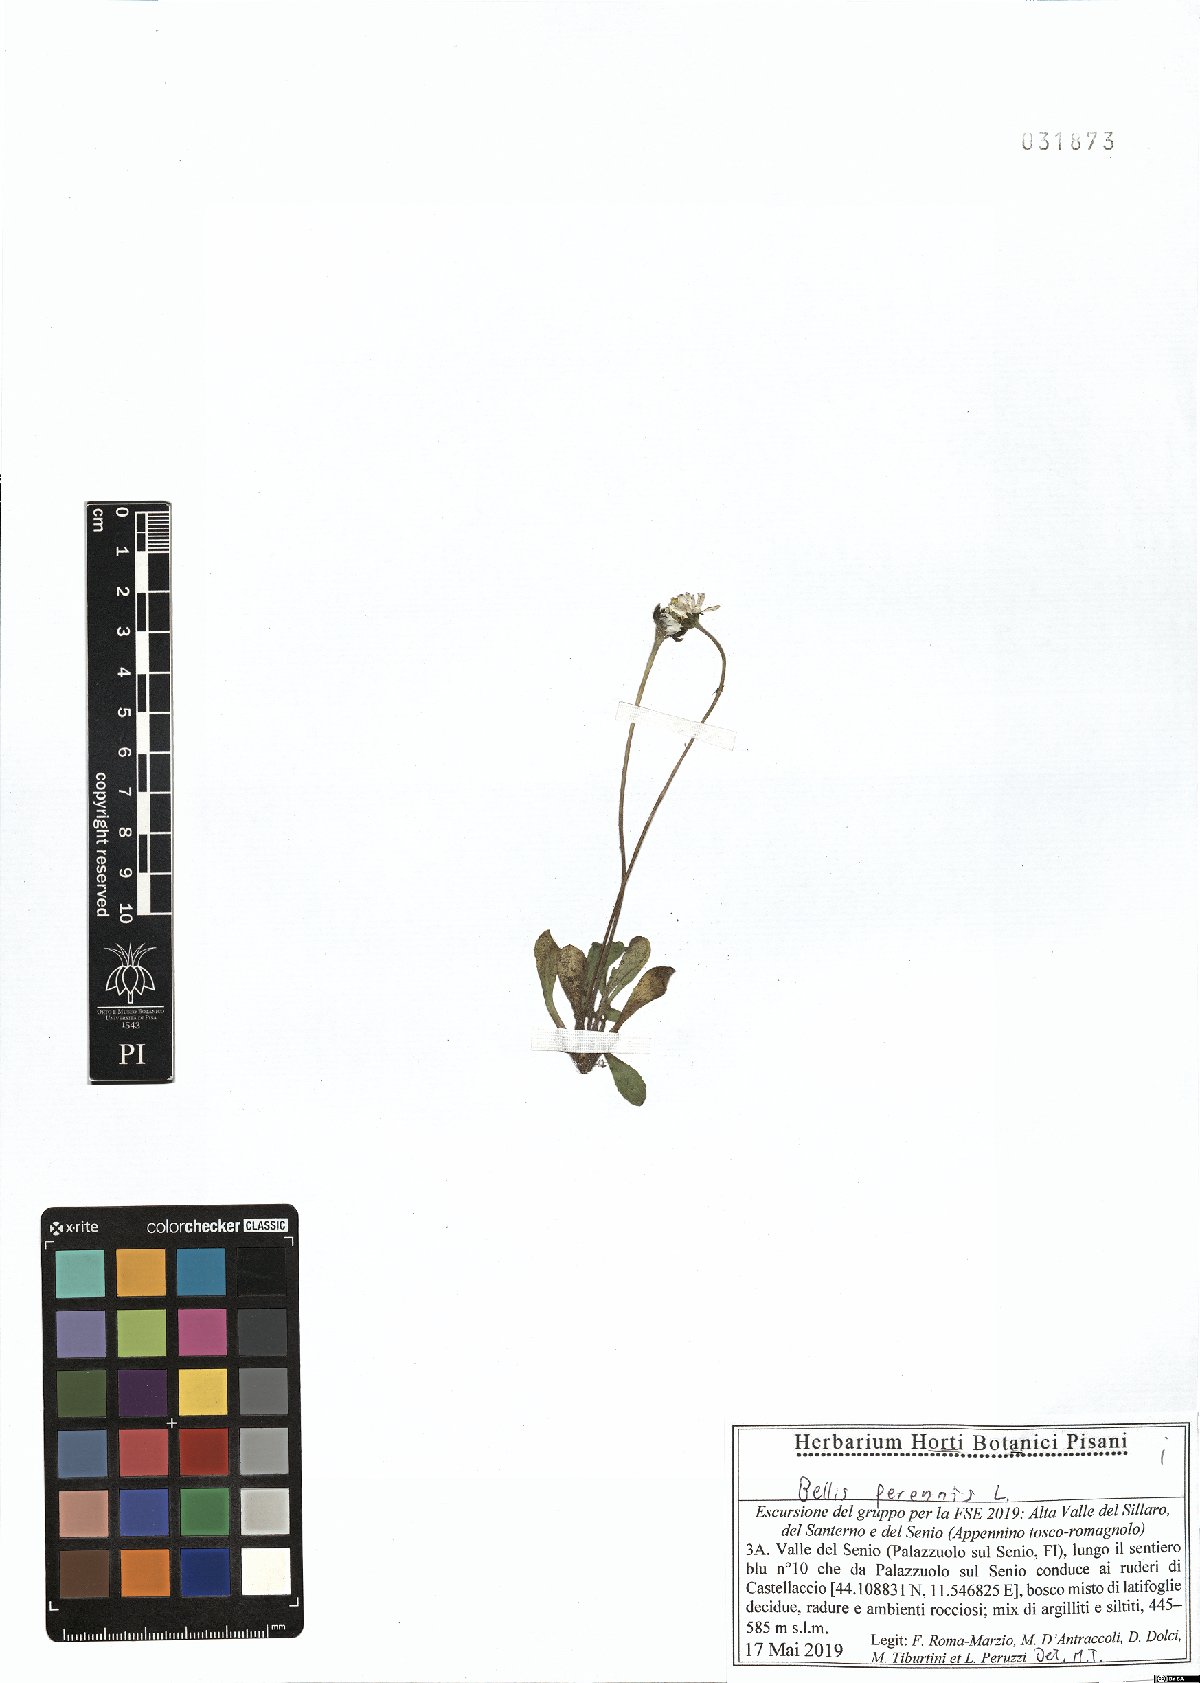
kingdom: Plantae
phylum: Tracheophyta
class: Magnoliopsida
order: Asterales
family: Asteraceae
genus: Bellis
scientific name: Bellis perennis
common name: Lawndaisy
